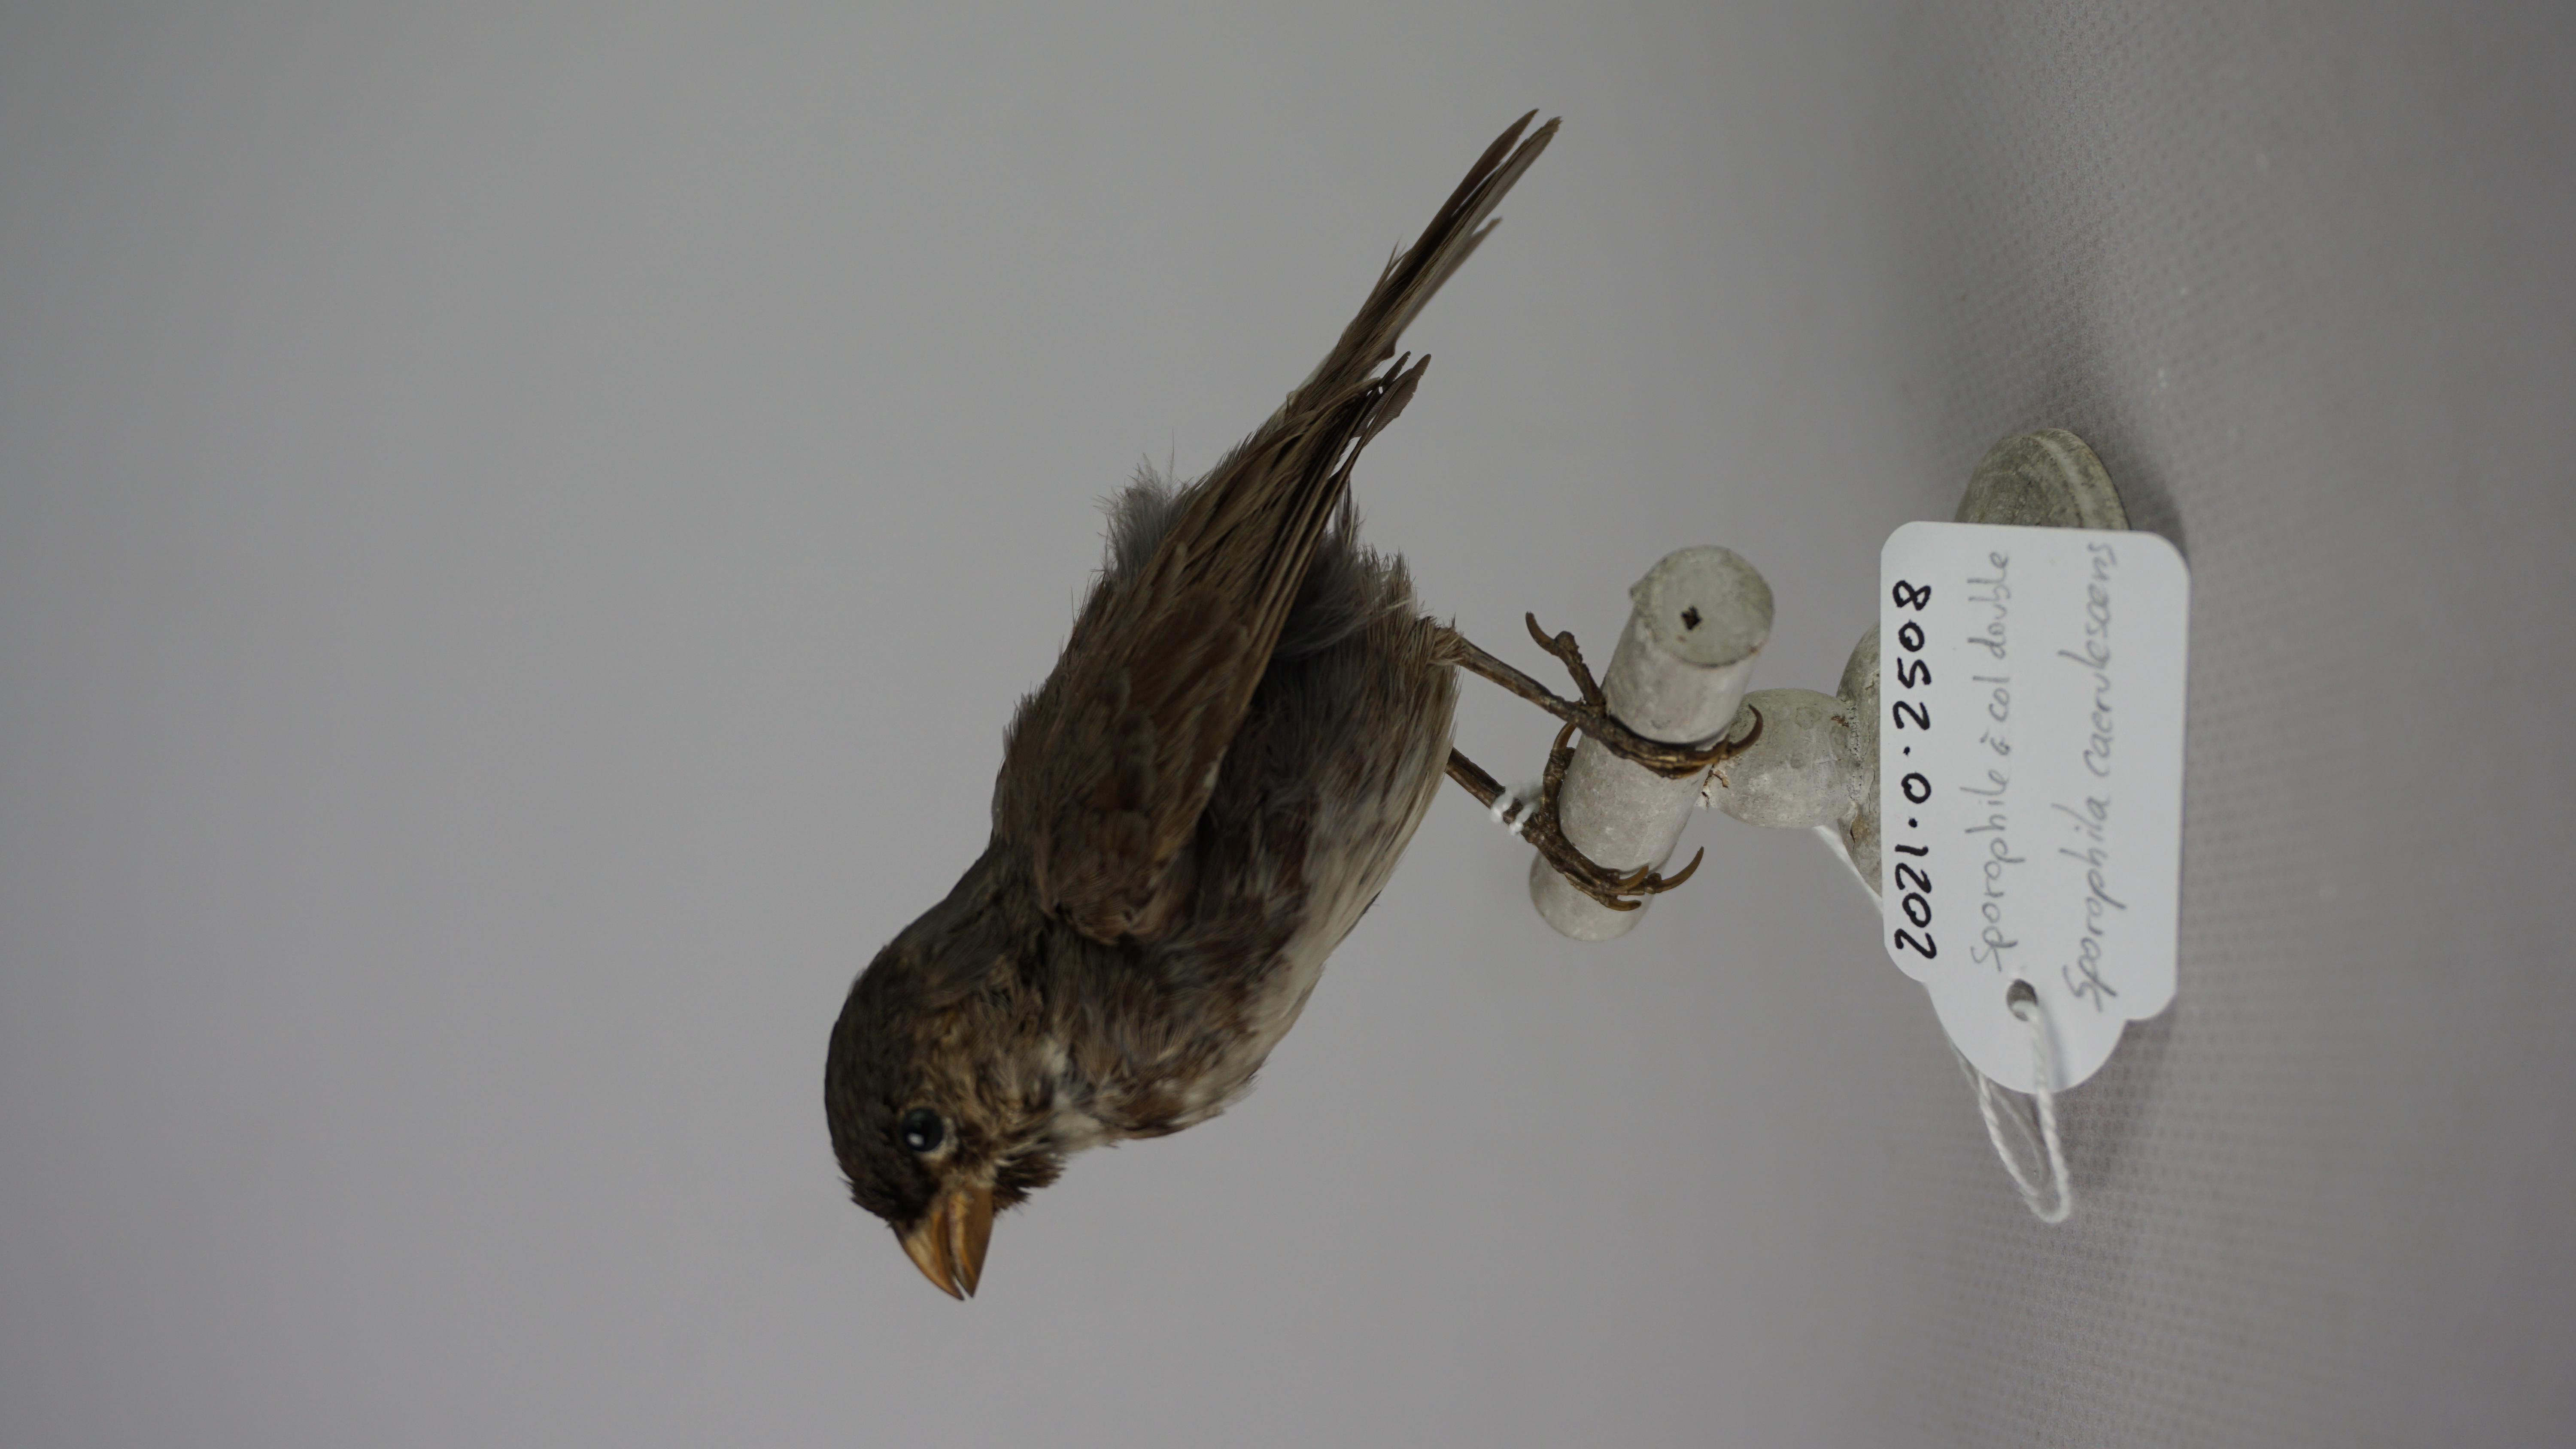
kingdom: Animalia
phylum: Chordata
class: Aves
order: Passeriformes
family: Thraupidae
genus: Sporophila
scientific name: Sporophila caerulescens
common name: Double-collared seedeater
